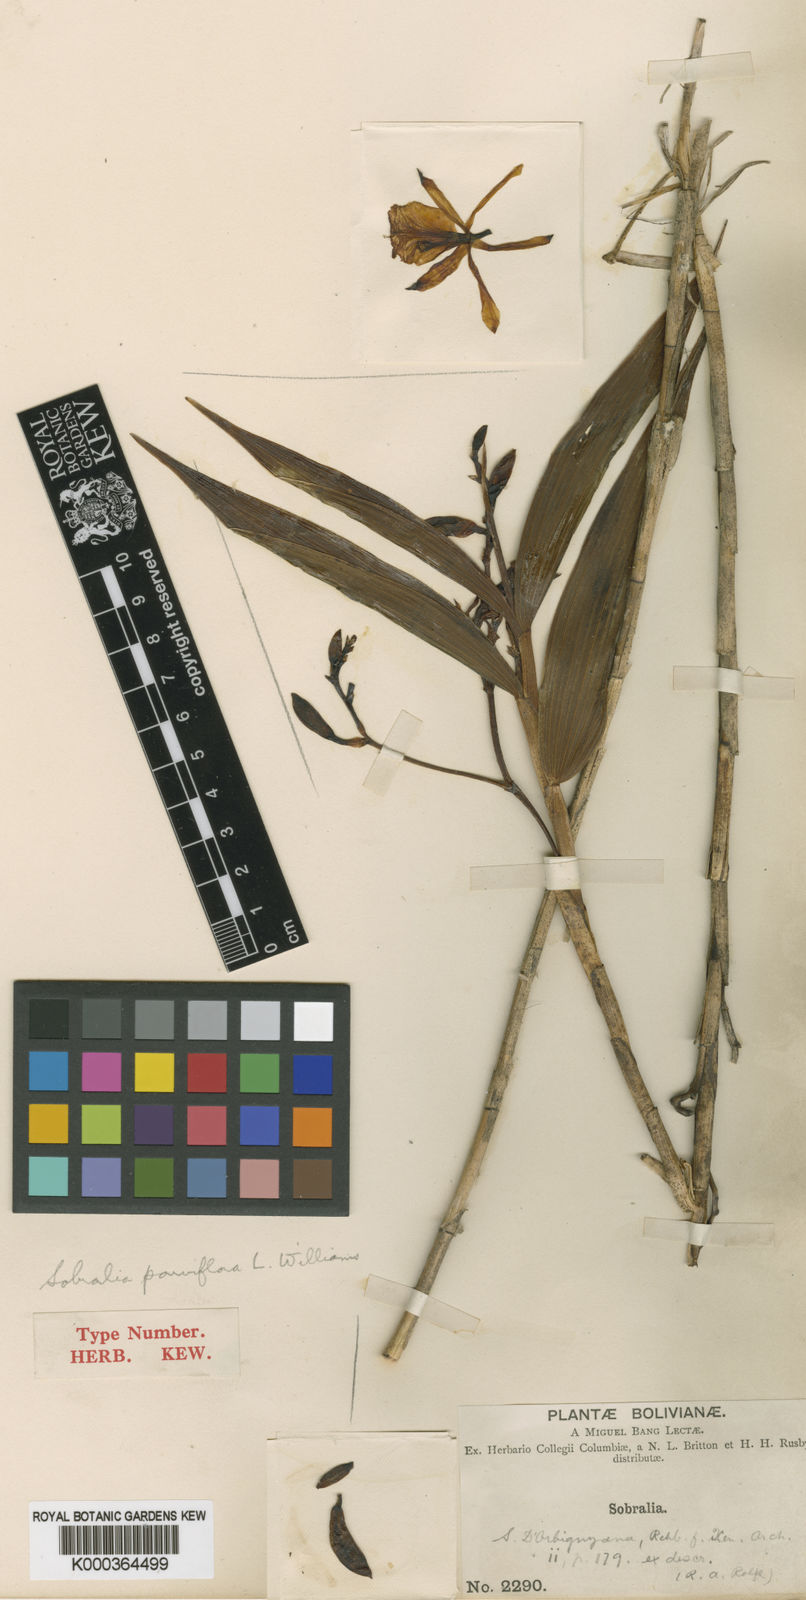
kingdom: Plantae
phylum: Tracheophyta
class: Liliopsida
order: Asparagales
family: Orchidaceae
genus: Sobralia
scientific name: Sobralia dorbignyana
